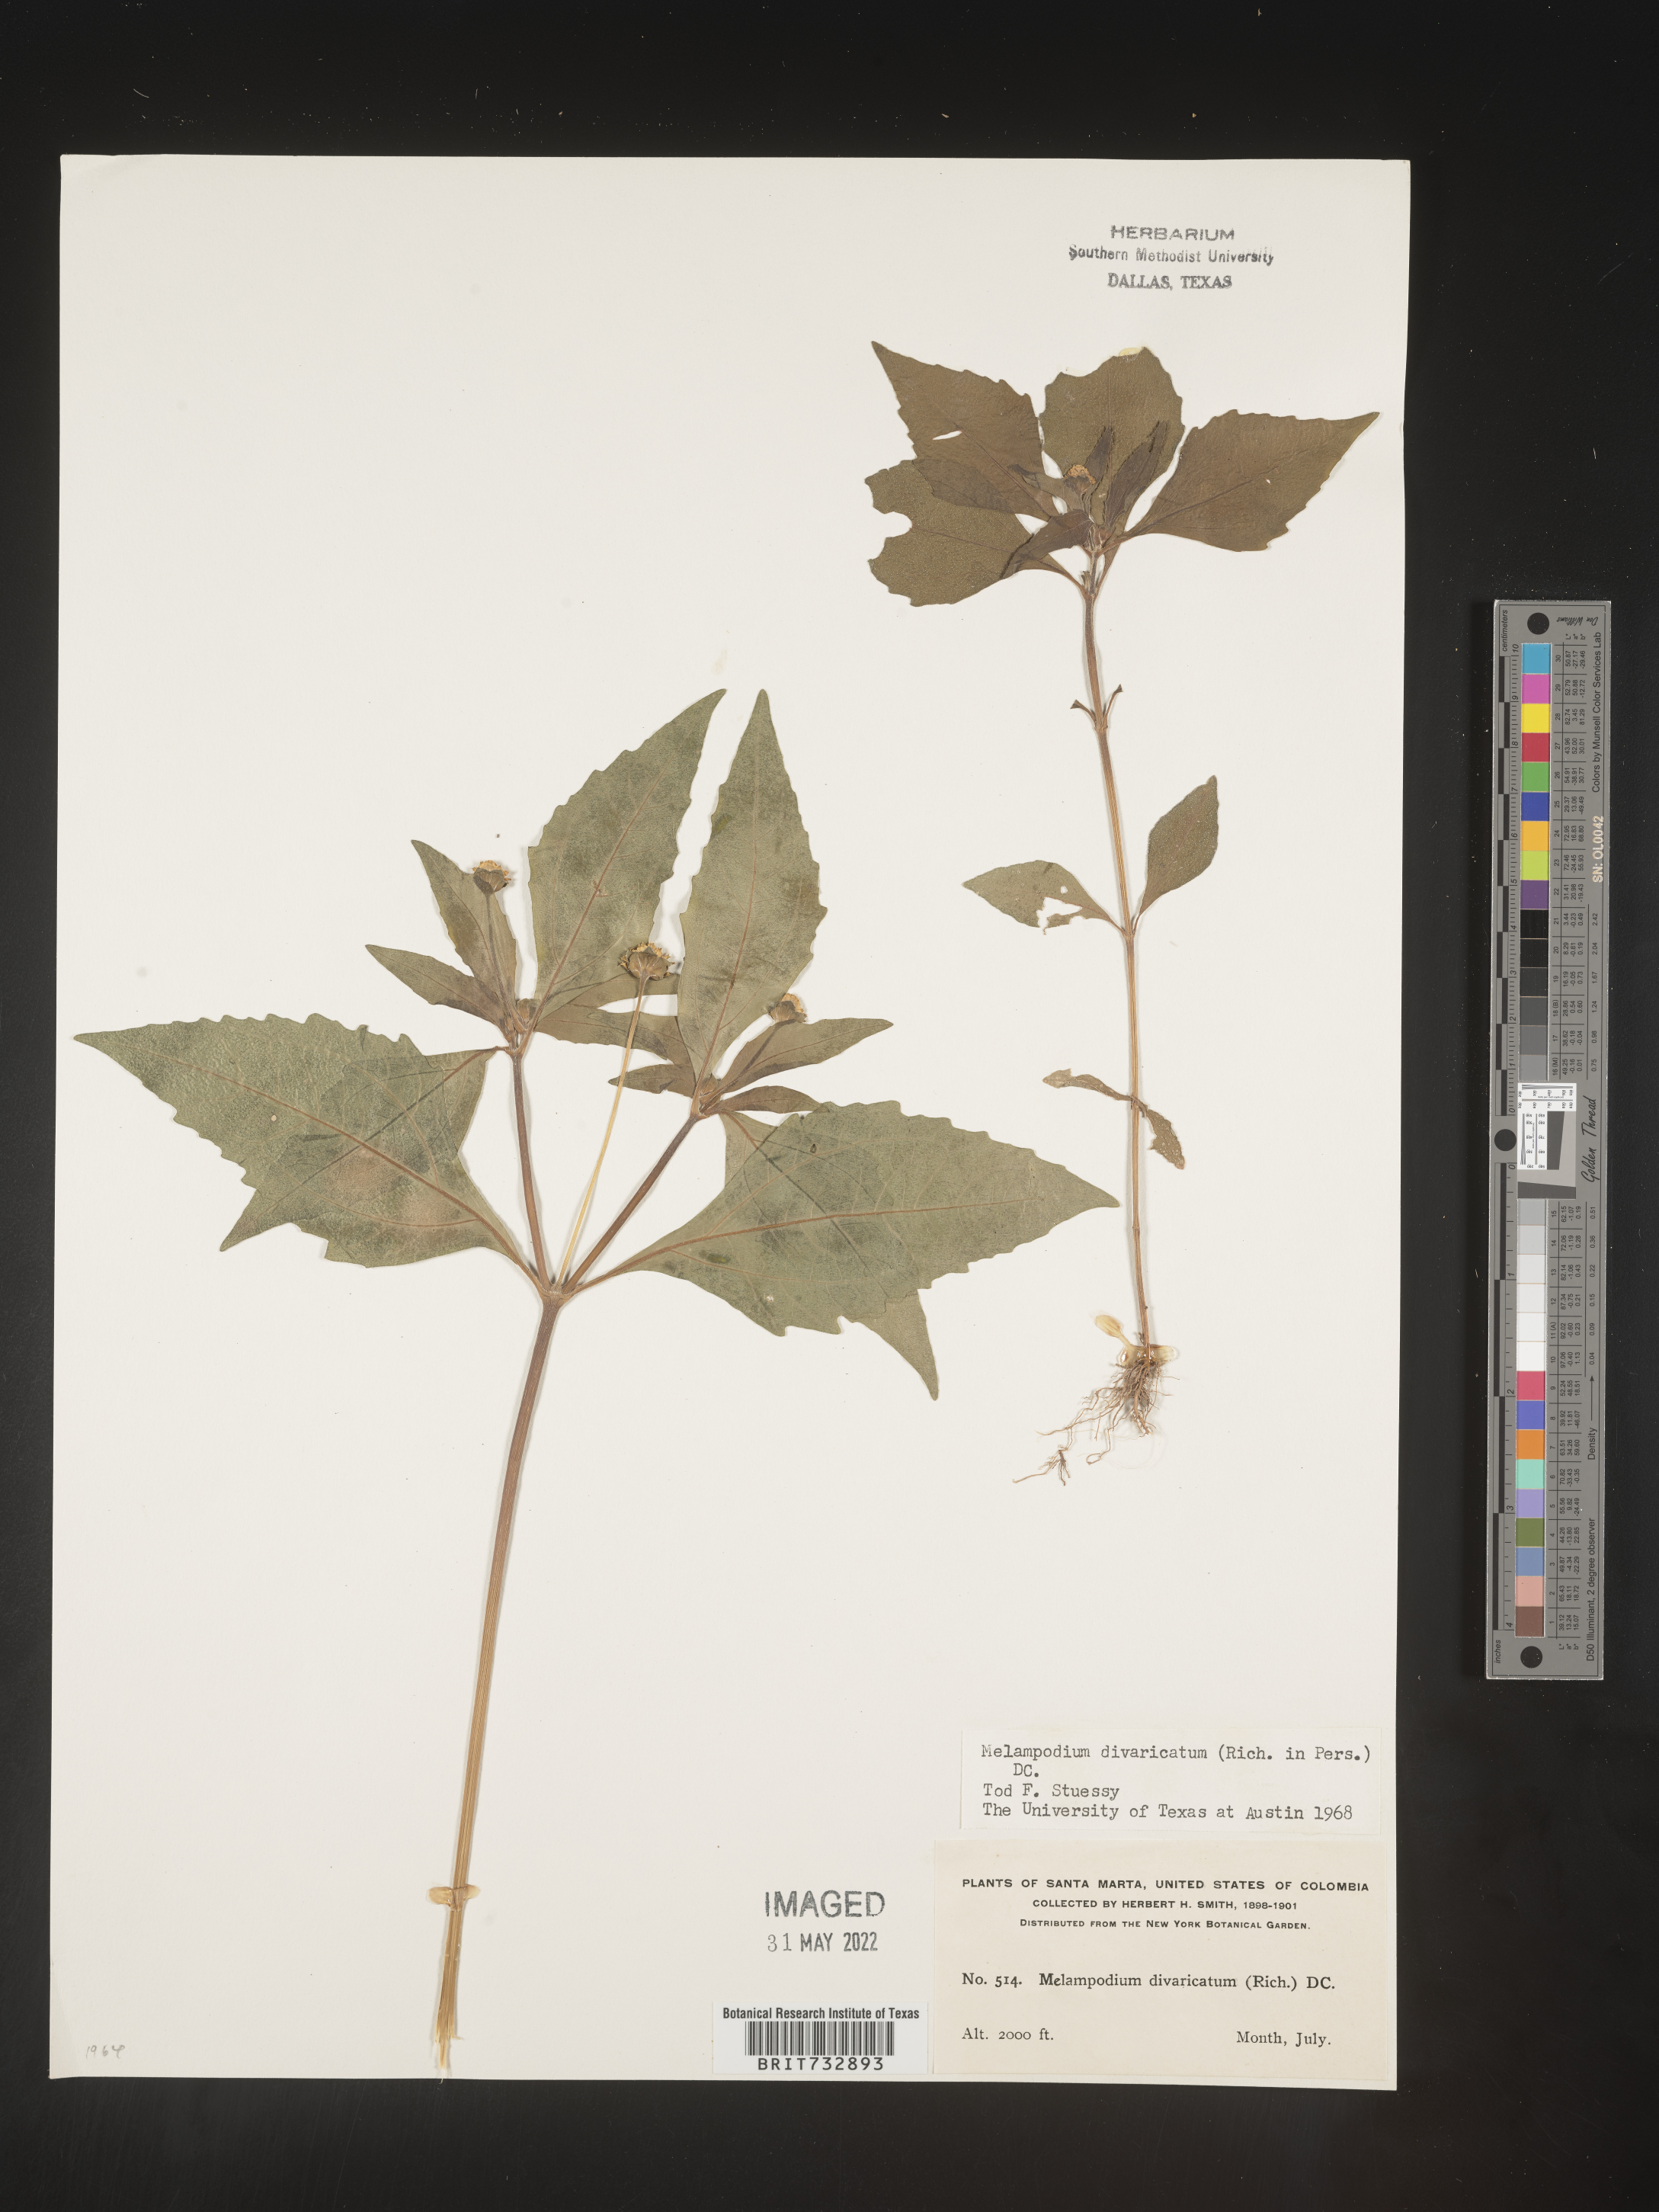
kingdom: Plantae
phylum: Tracheophyta
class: Magnoliopsida
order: Asterales
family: Asteraceae
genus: Melampodium
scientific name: Melampodium divaricatum
